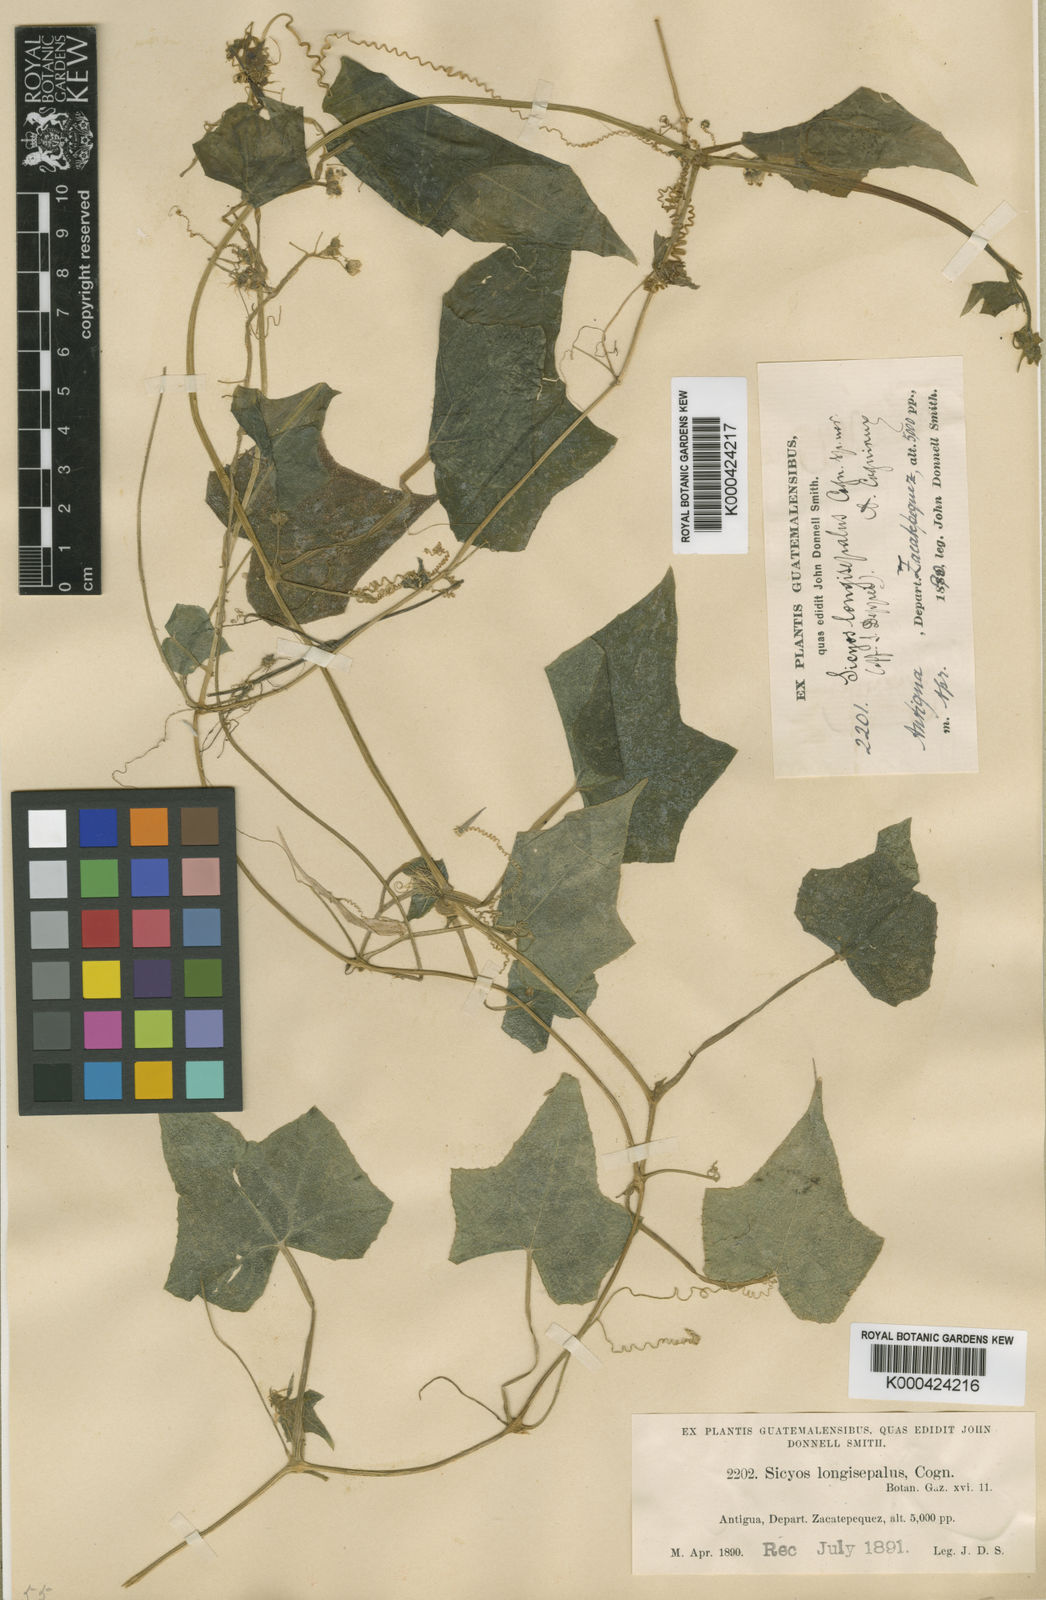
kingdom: Plantae
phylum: Tracheophyta
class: Magnoliopsida
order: Cucurbitales
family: Cucurbitaceae
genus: Sicyos
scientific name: Sicyos longisepalus
